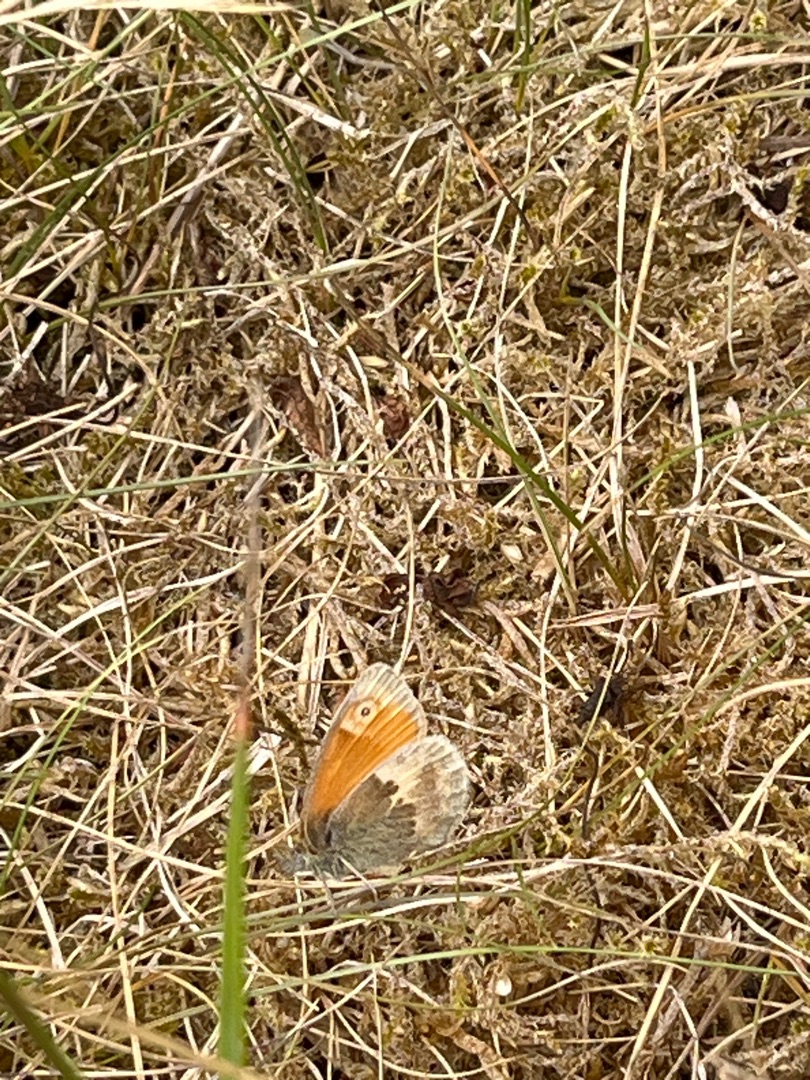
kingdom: Animalia
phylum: Arthropoda
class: Insecta
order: Lepidoptera
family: Nymphalidae
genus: Coenonympha
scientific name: Coenonympha pamphilus
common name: Okkergul randøje
